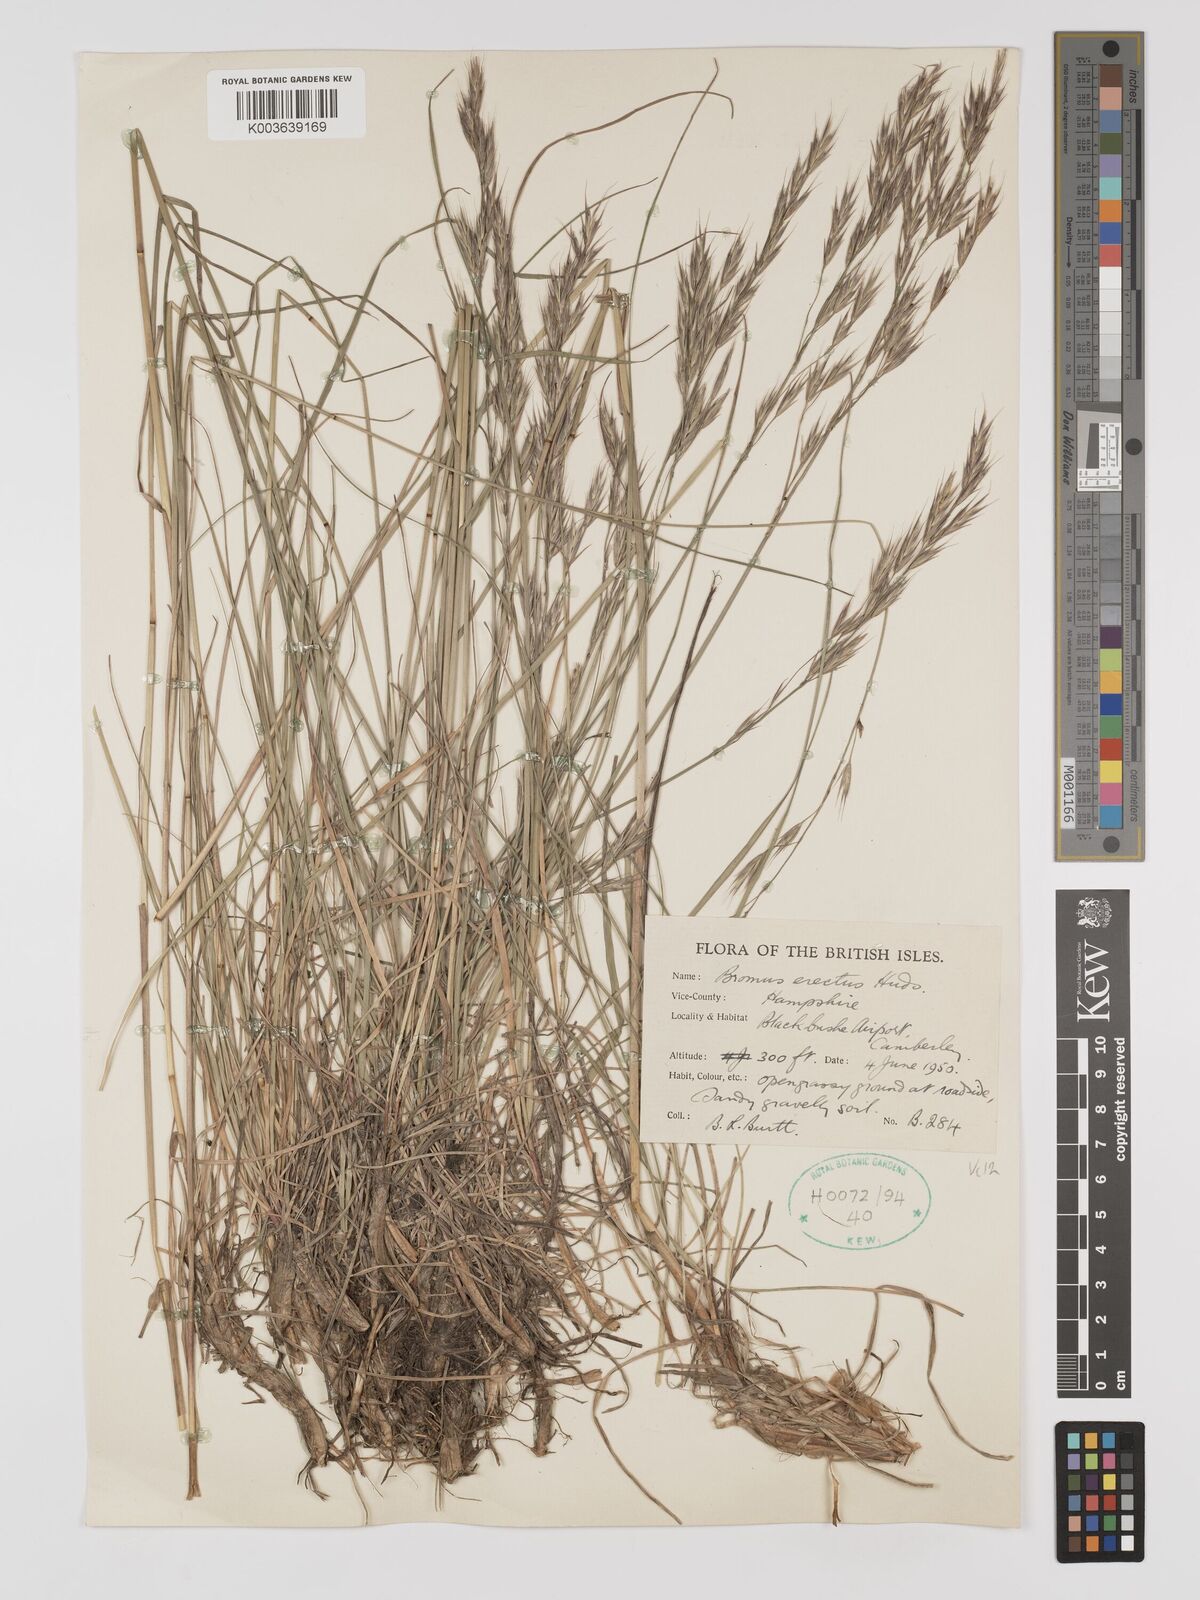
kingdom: Plantae
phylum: Tracheophyta
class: Liliopsida
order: Poales
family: Poaceae
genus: Bromus
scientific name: Bromus erectus
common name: Erect brome
